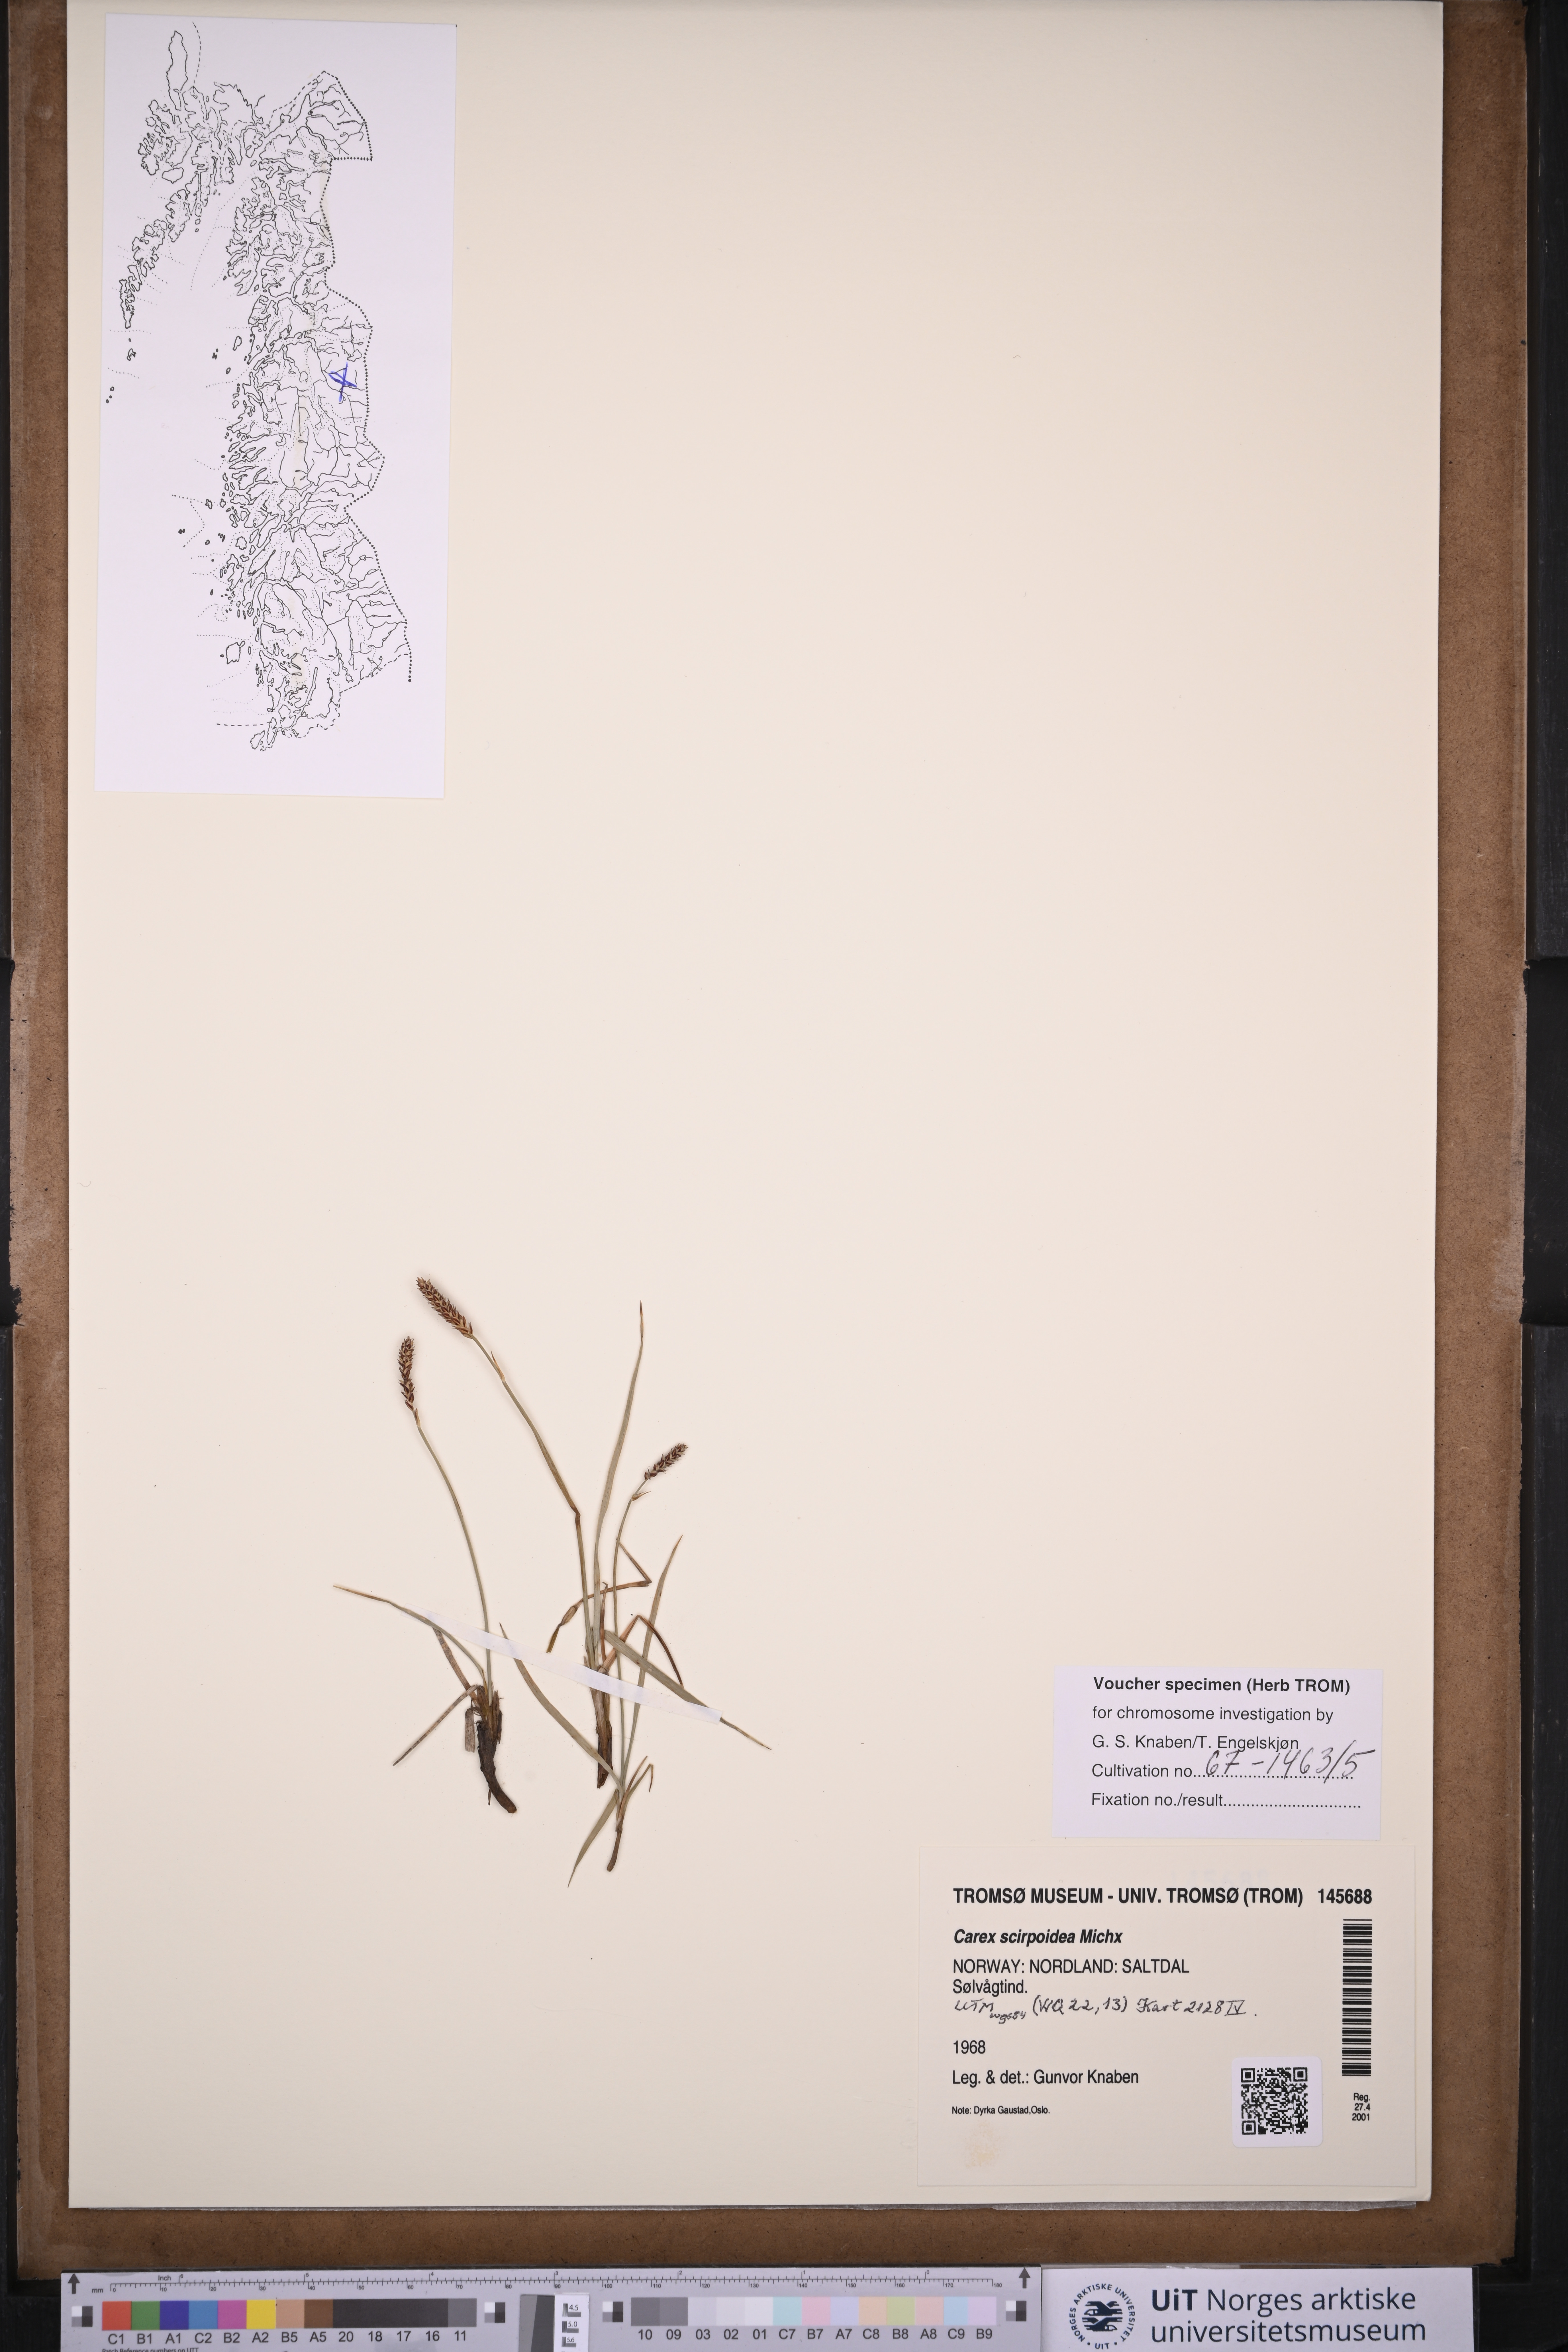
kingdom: Plantae
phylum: Tracheophyta
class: Liliopsida
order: Poales
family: Cyperaceae
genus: Carex
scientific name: Carex scirpoidea
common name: Canada single-spike sedge
